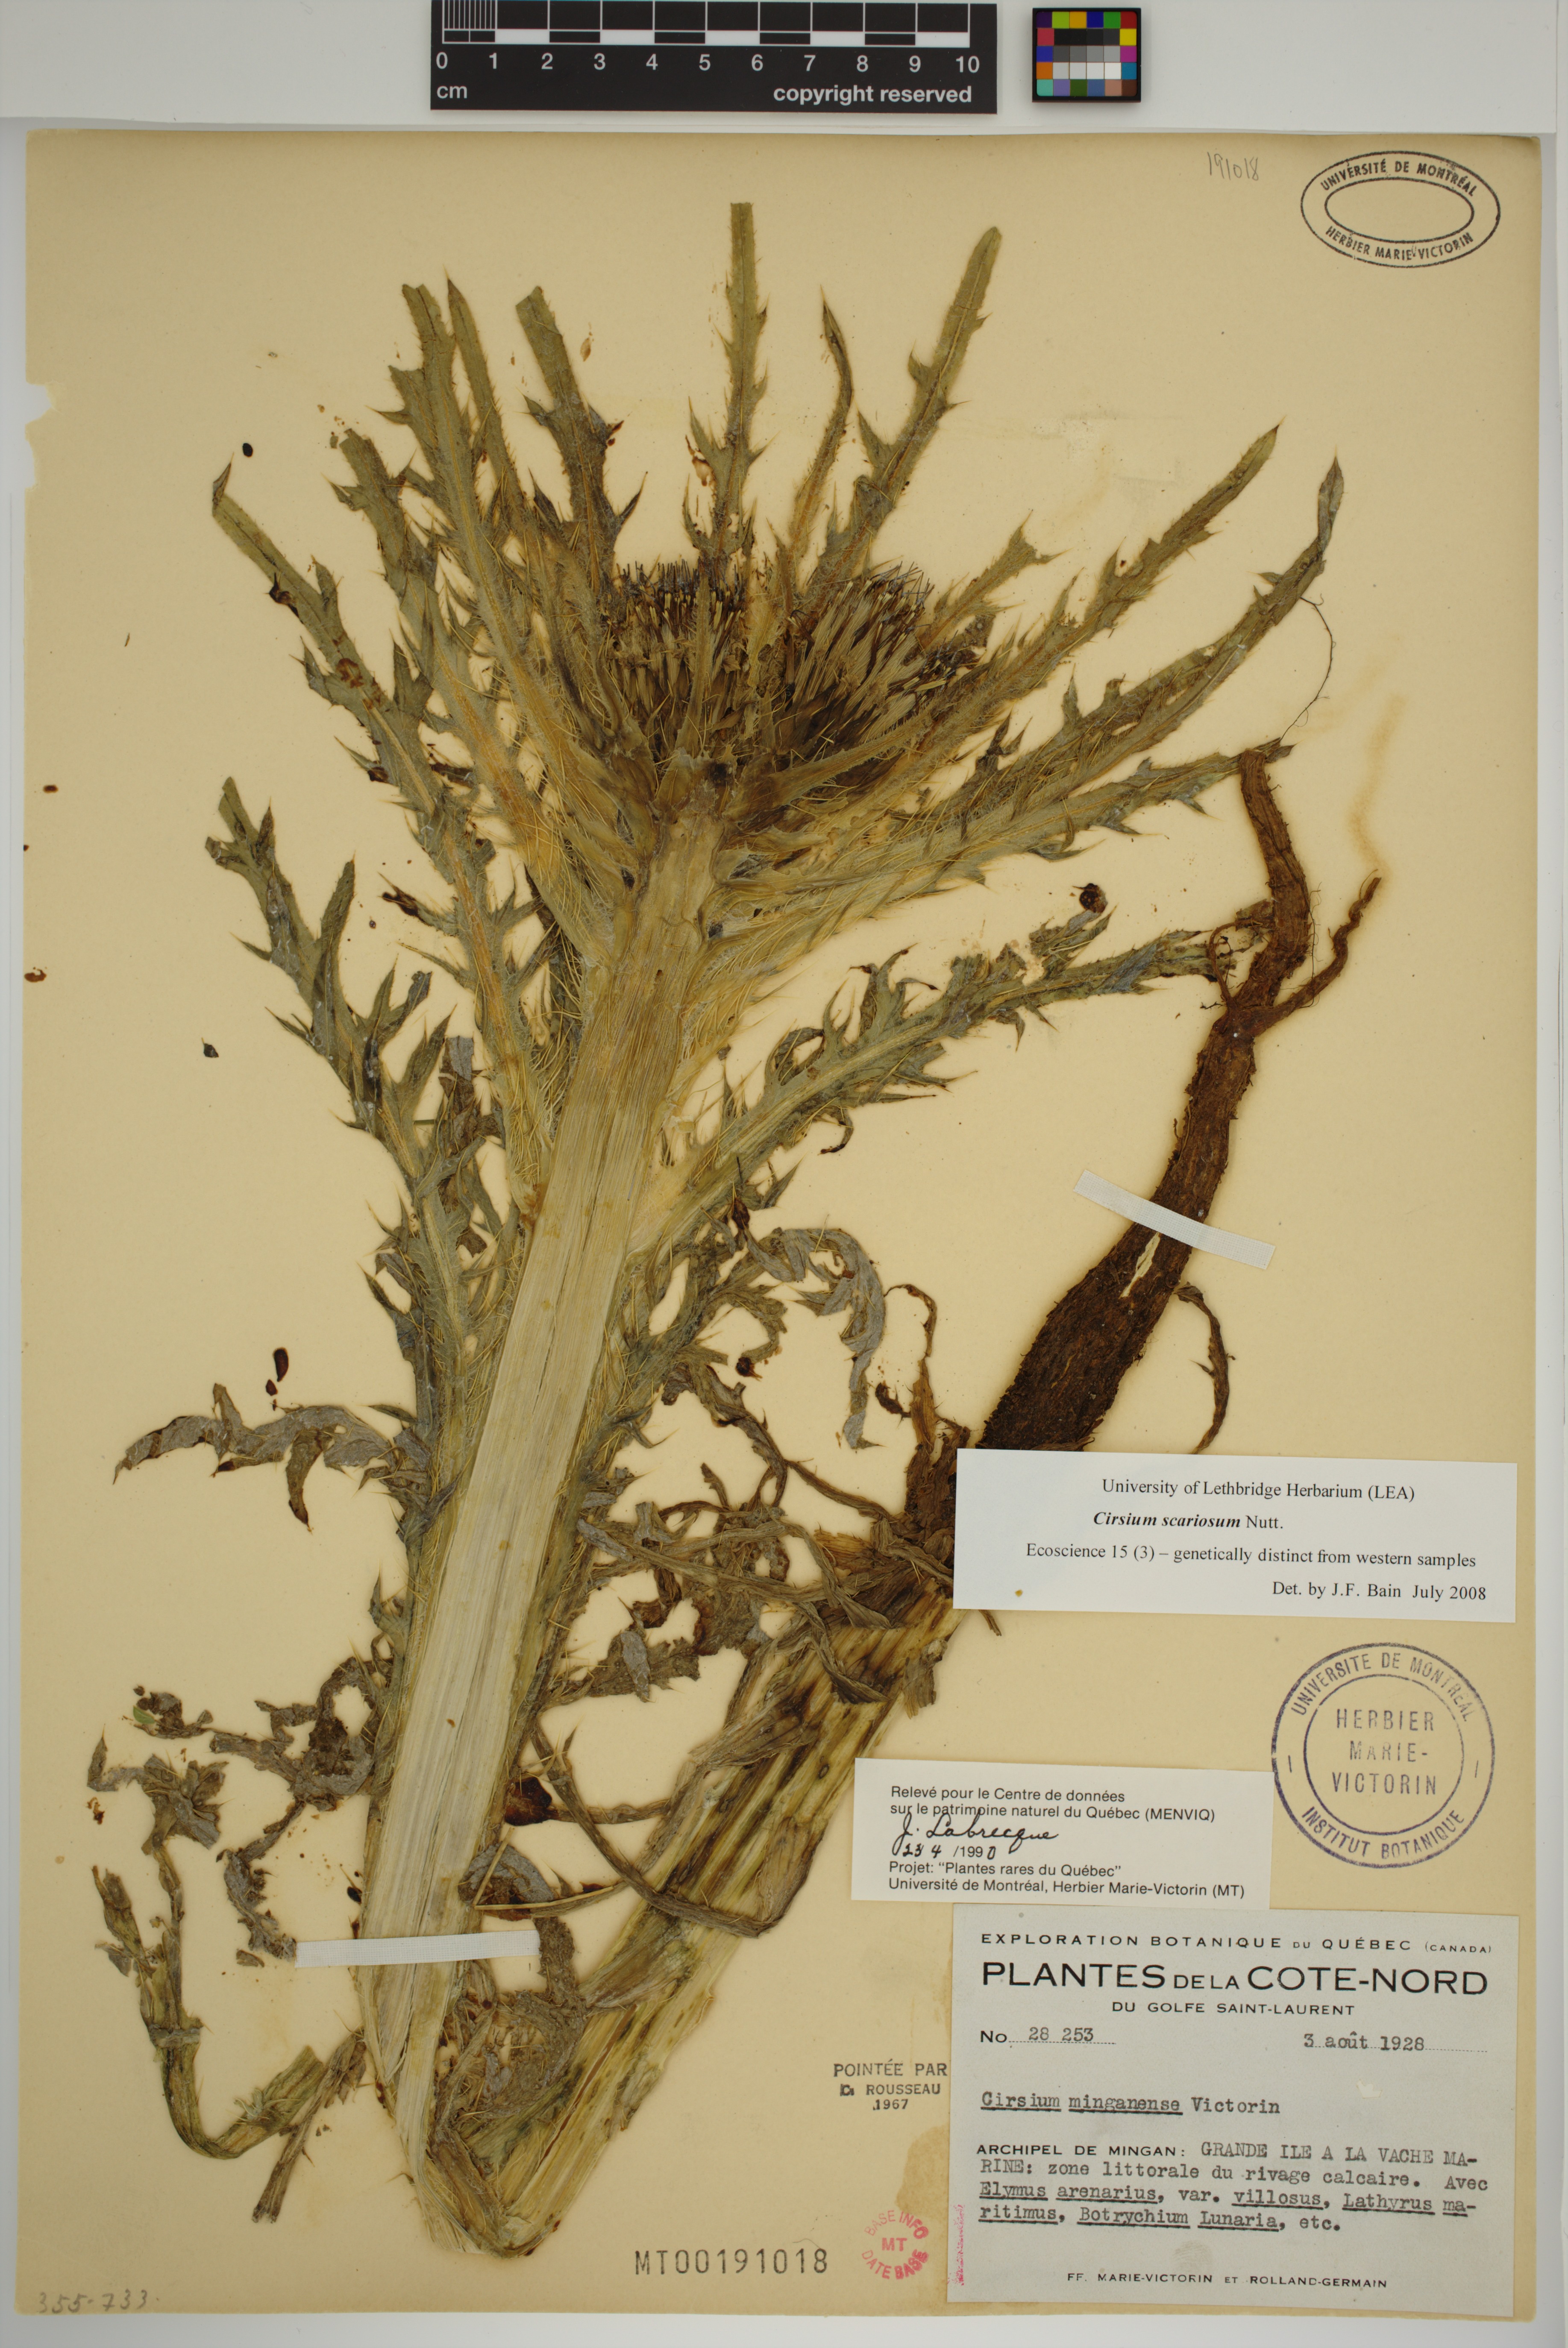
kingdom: Plantae
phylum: Tracheophyta
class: Magnoliopsida
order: Asterales
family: Asteraceae
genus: Cirsium
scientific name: Cirsium scariosum
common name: Meadow thistle
